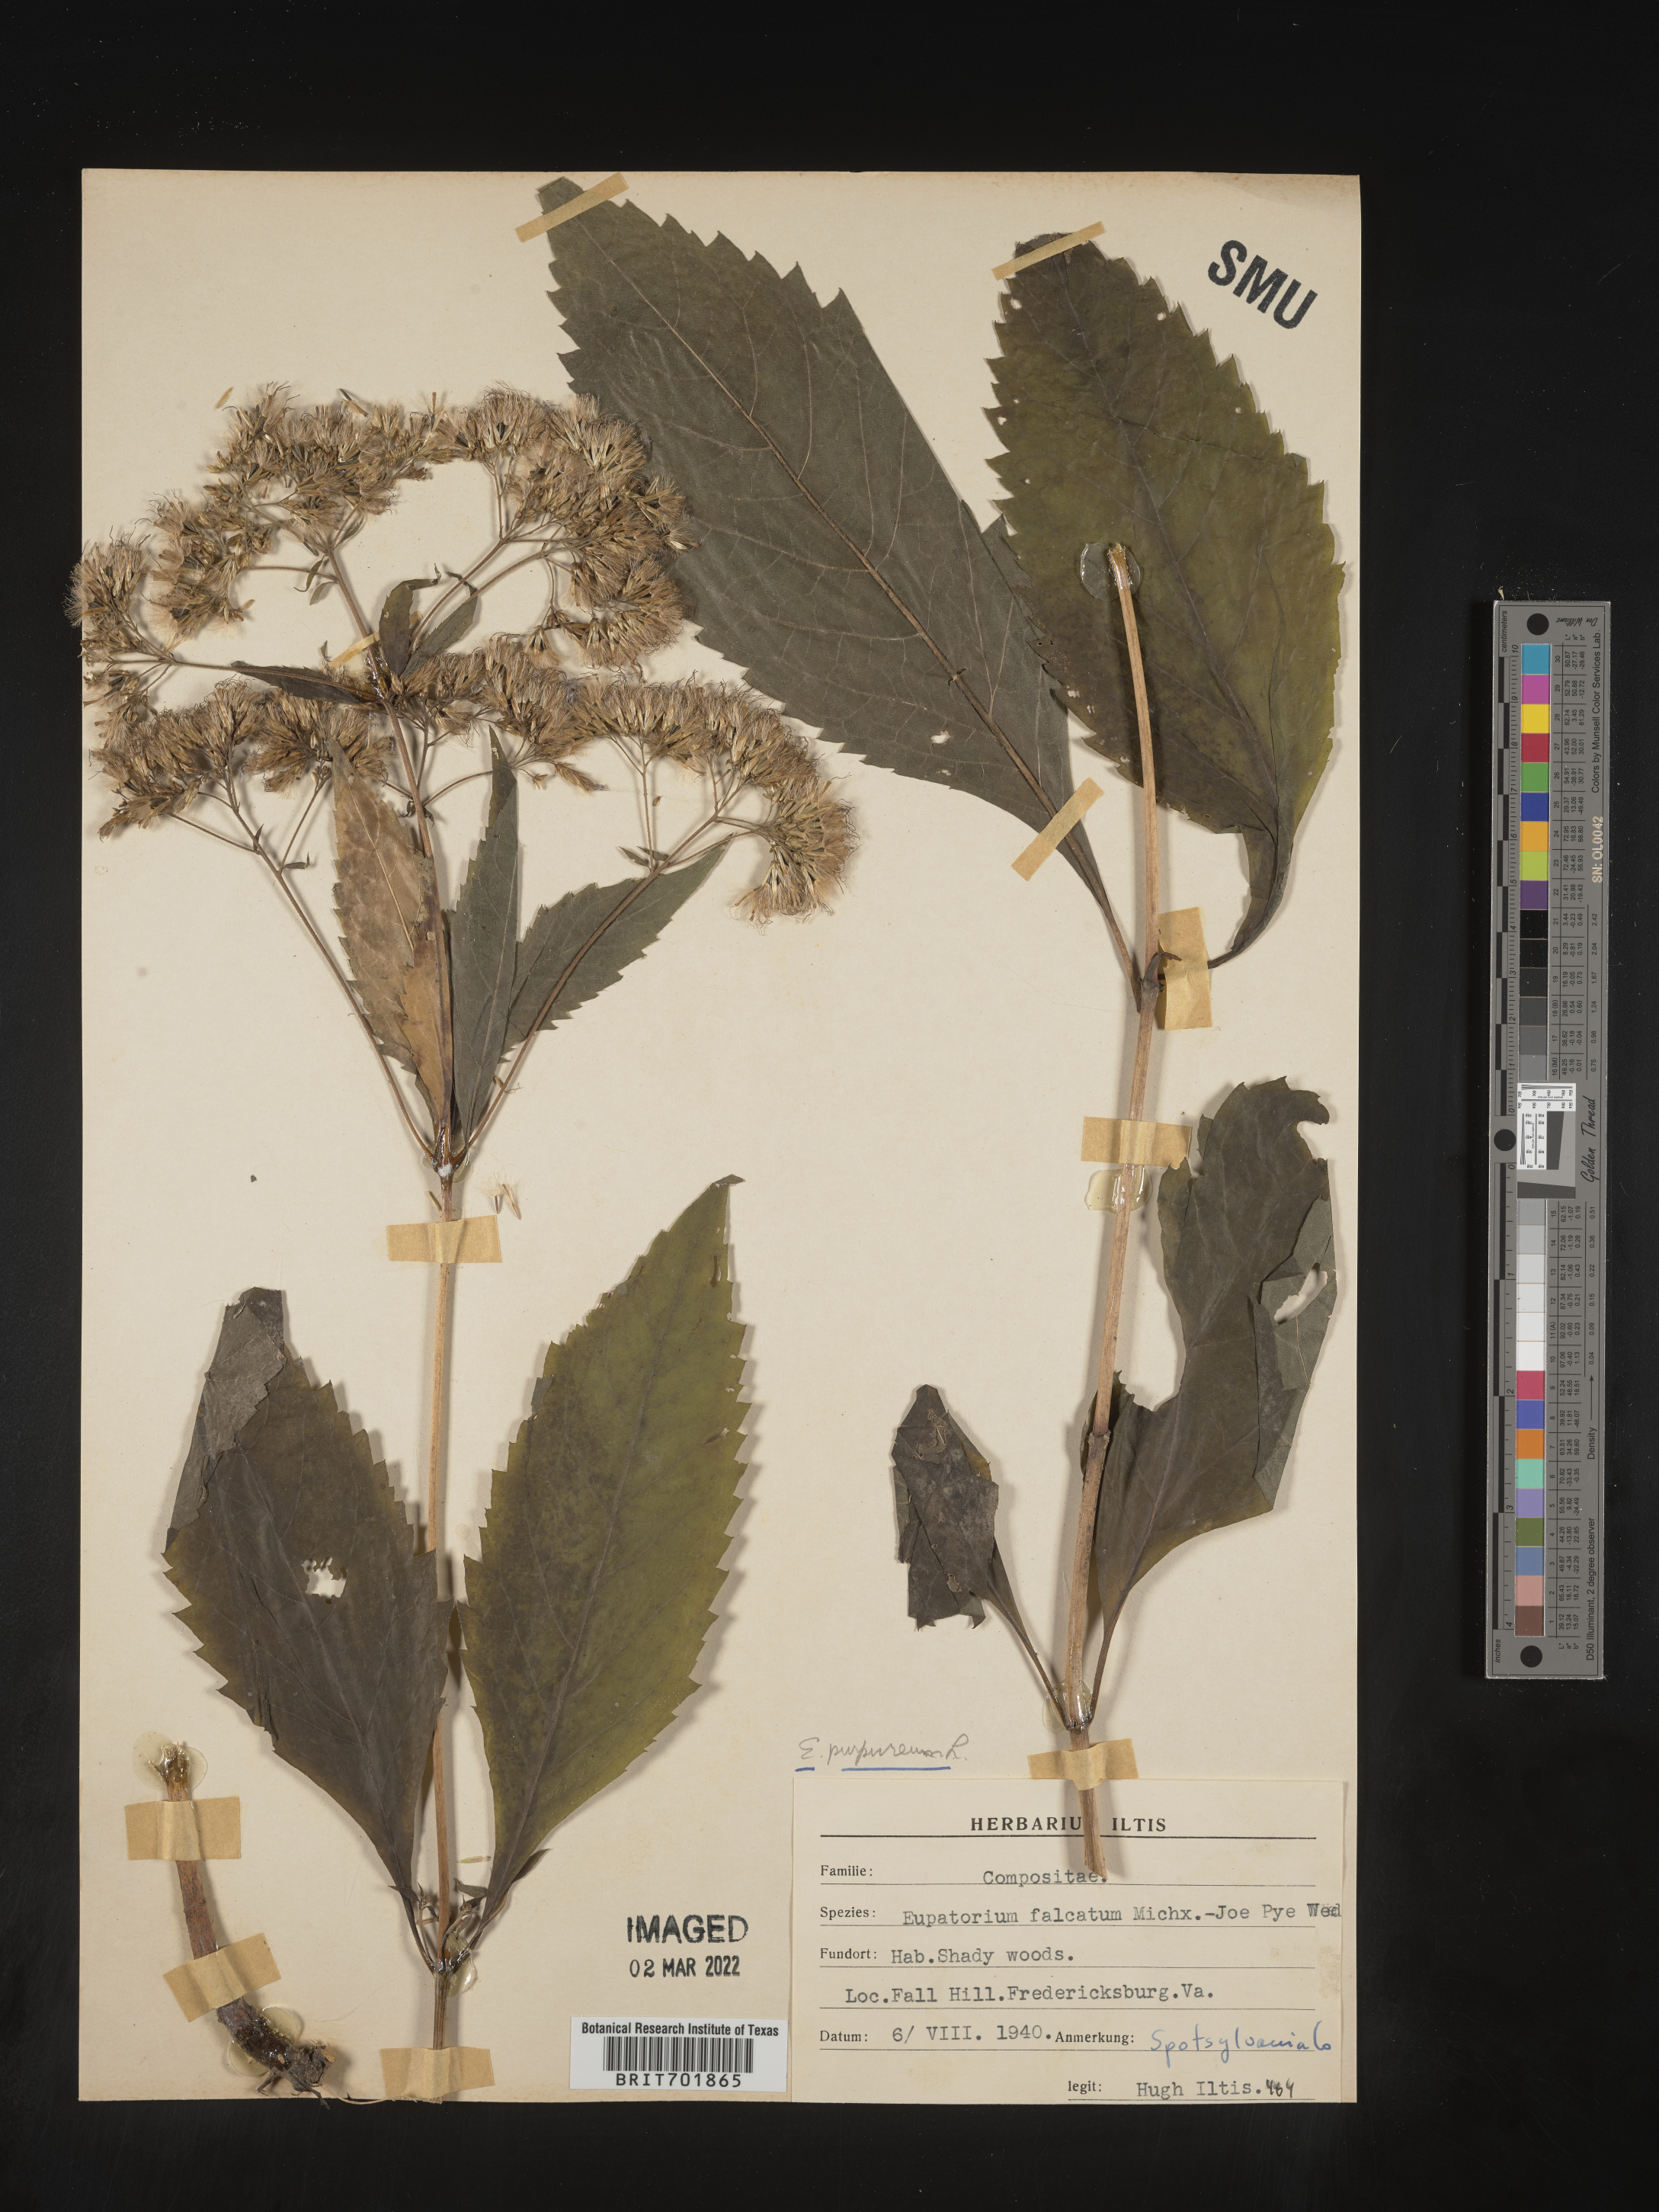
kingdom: Plantae
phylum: Tracheophyta
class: Magnoliopsida
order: Asterales
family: Asteraceae
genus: Eupatorium
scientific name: Eupatorium quaternum
